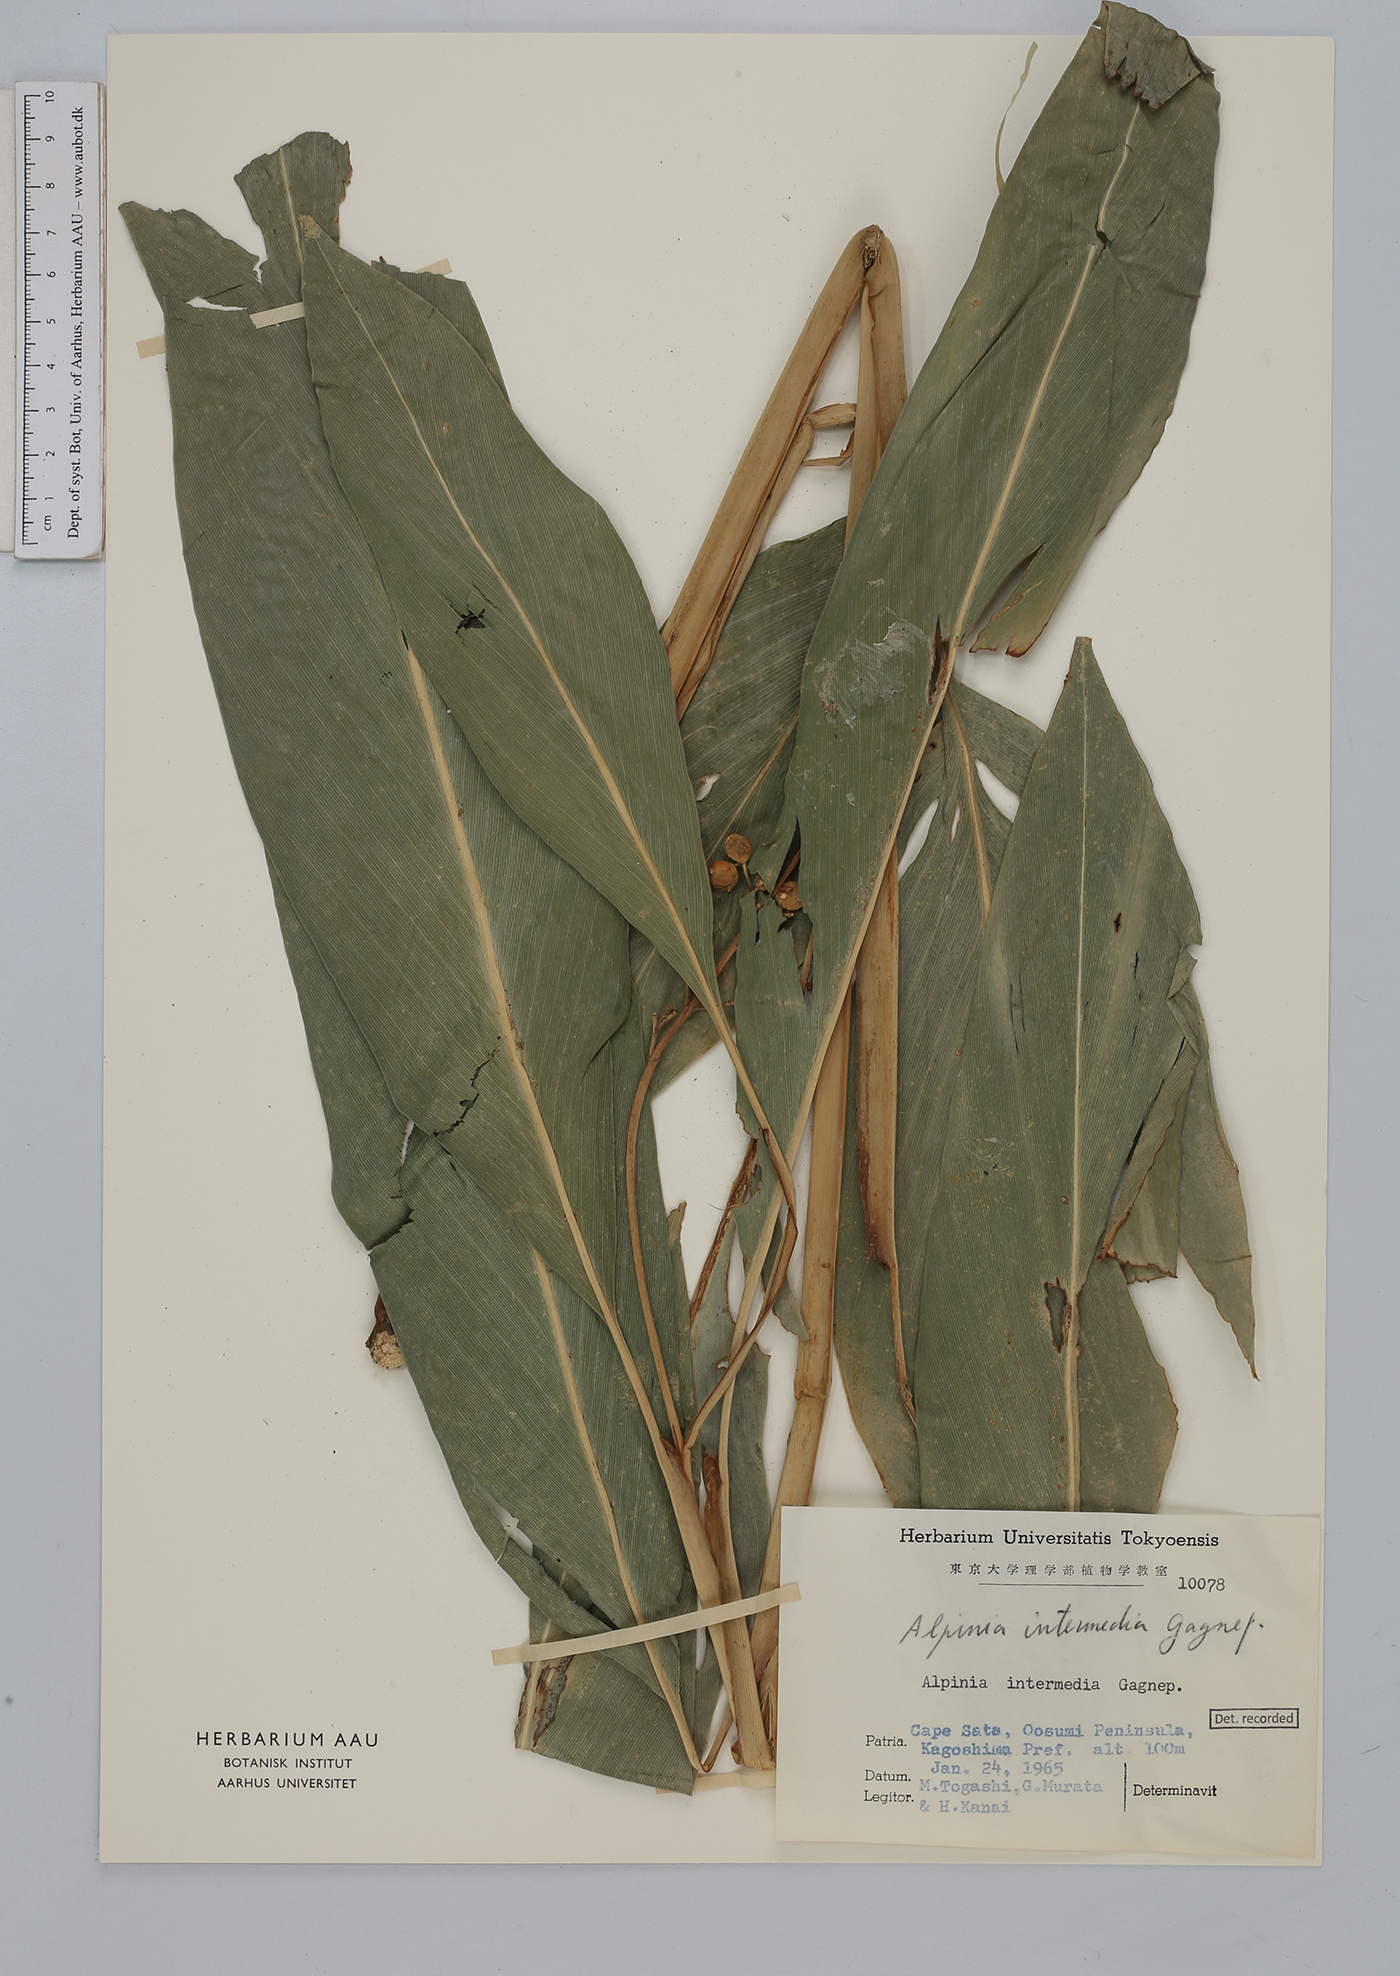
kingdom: Plantae
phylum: Tracheophyta
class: Liliopsida
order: Zingiberales
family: Zingiberaceae
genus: Alpinia
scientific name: Alpinia intermedia
